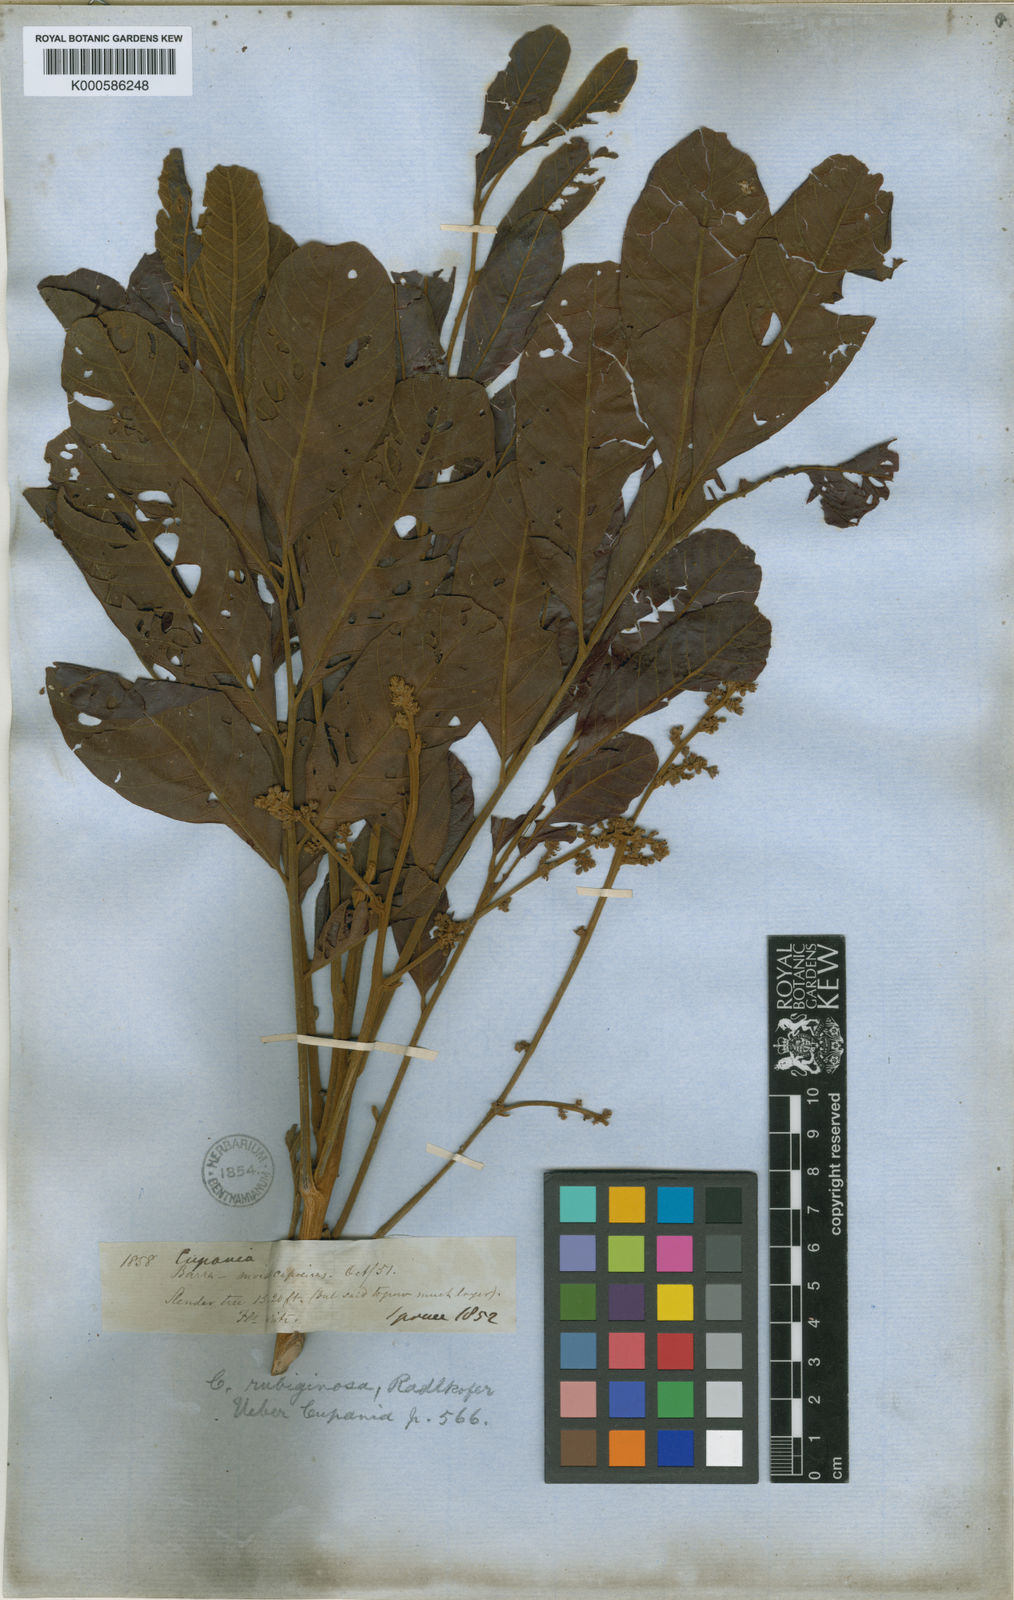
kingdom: Plantae
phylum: Tracheophyta
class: Magnoliopsida
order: Sapindales
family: Sapindaceae
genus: Cupania
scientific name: Cupania rubiginosa
